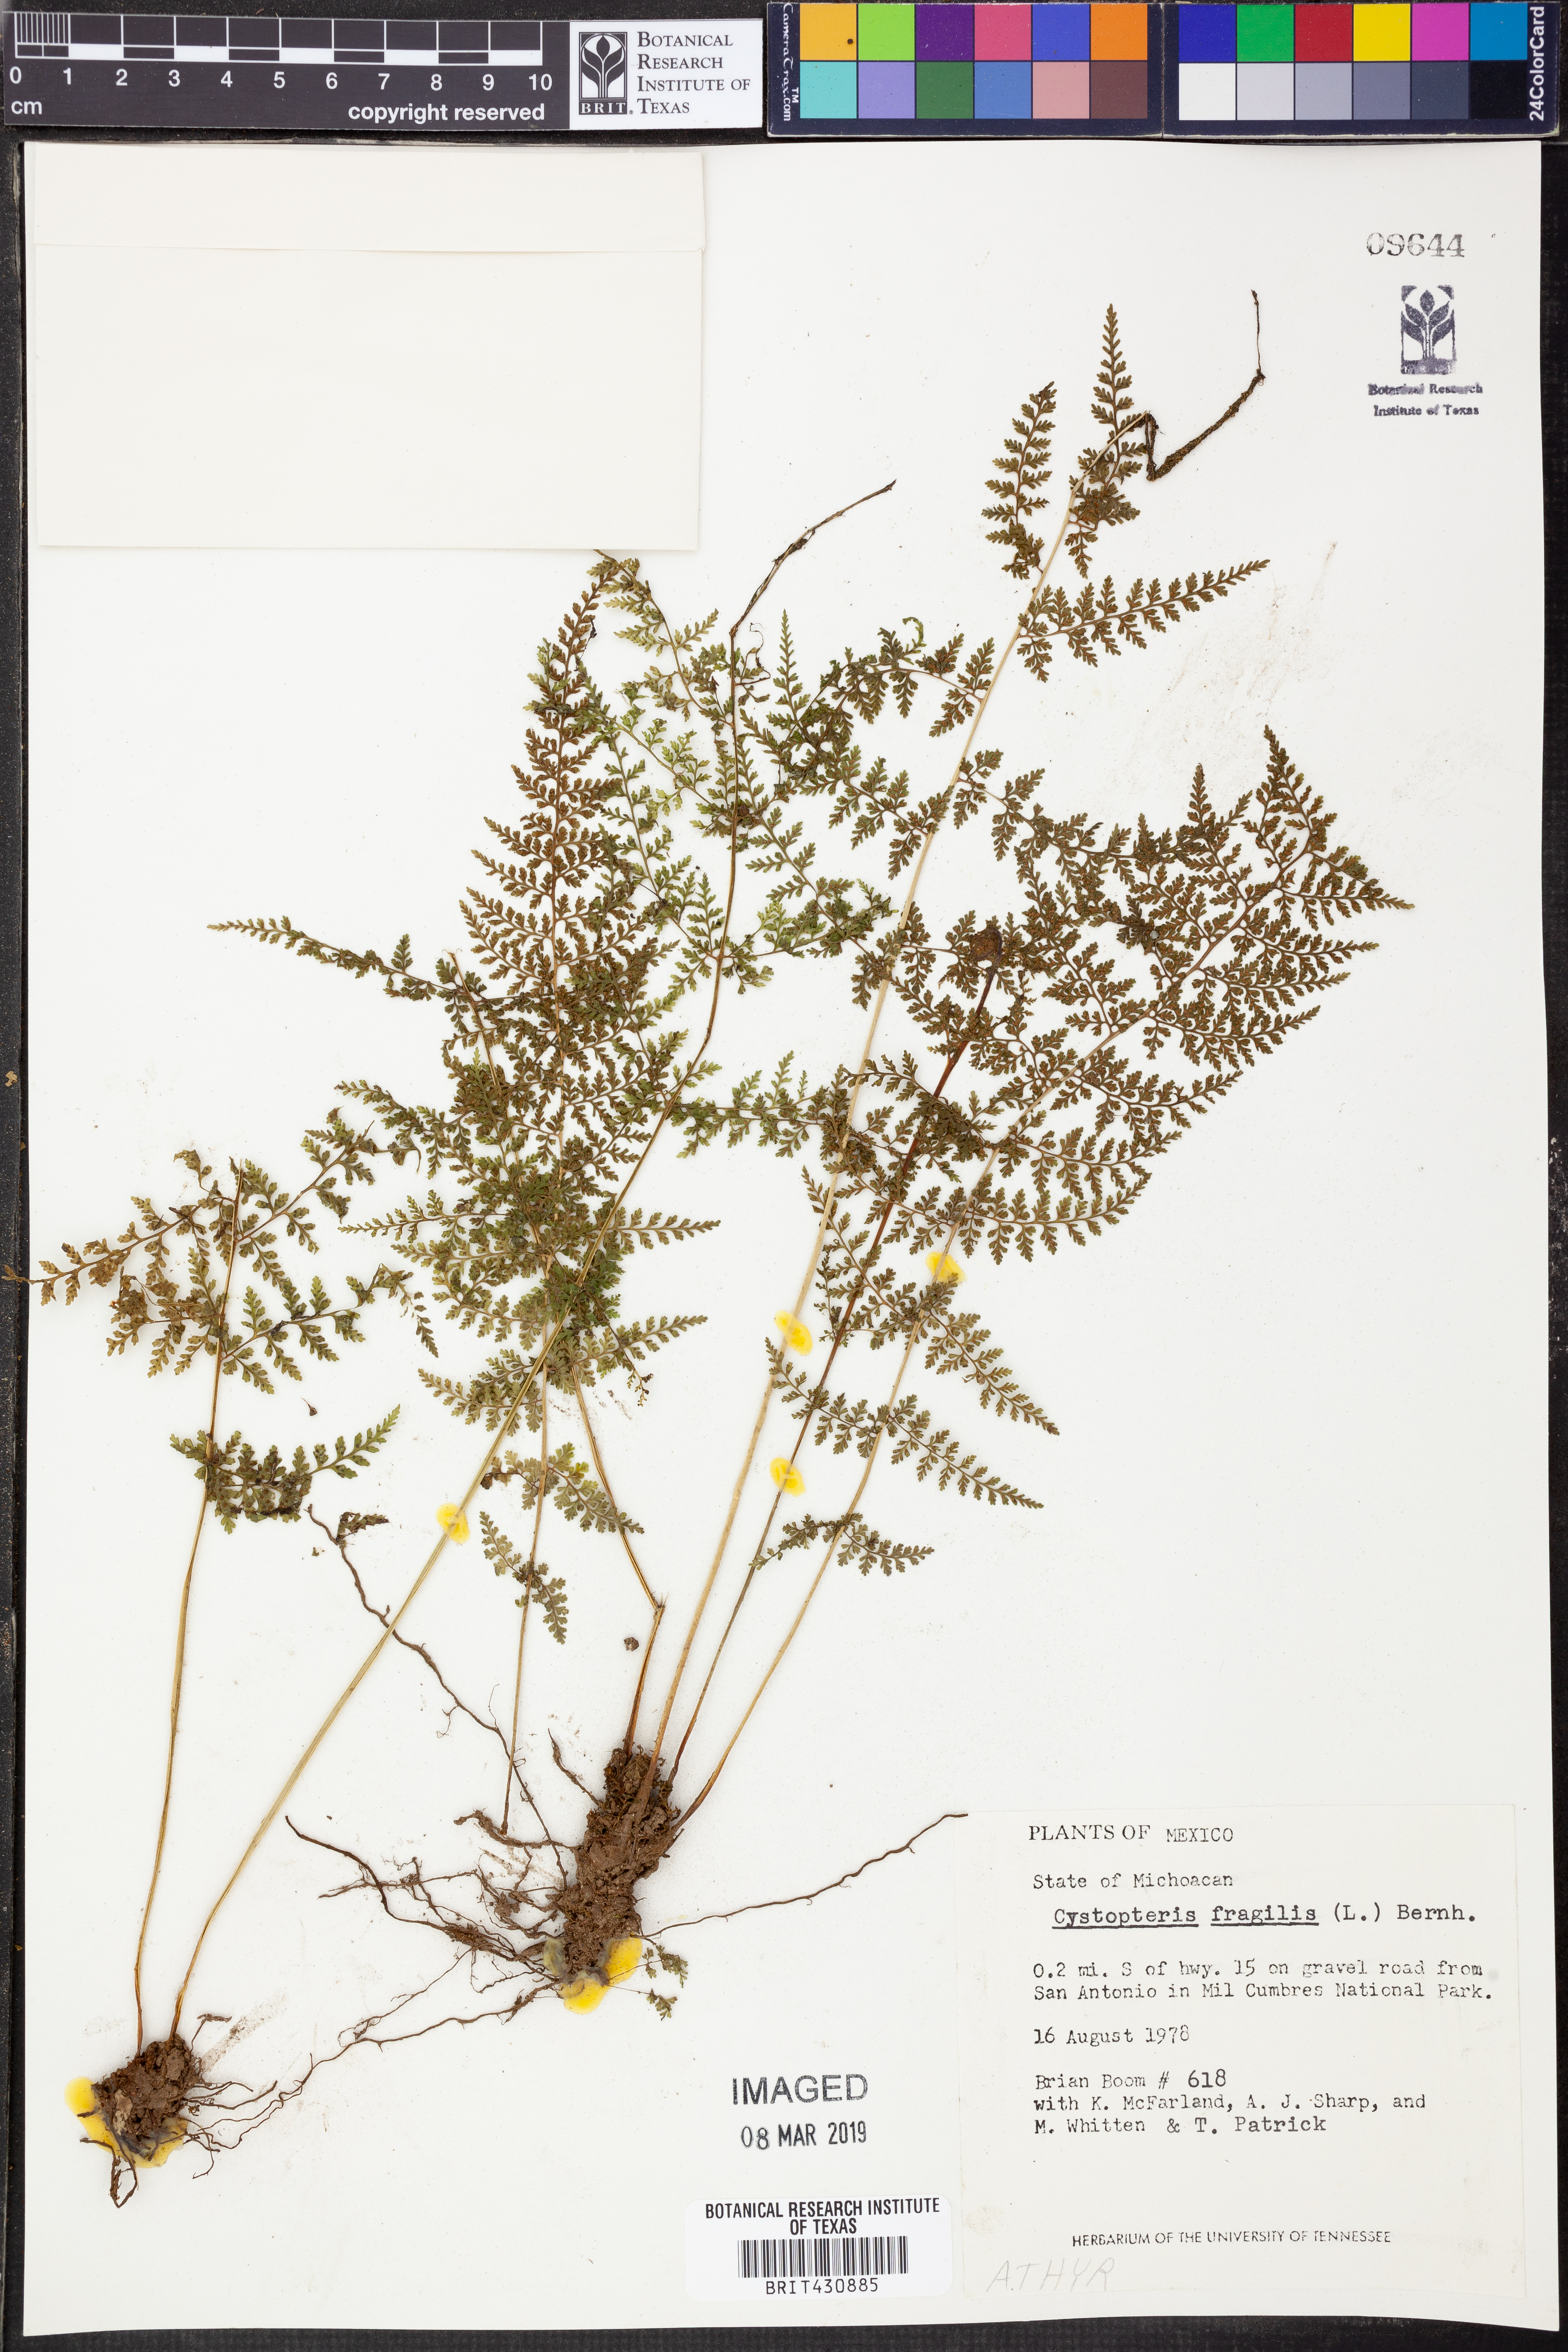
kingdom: Plantae
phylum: Tracheophyta
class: Polypodiopsida
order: Polypodiales
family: Cystopteridaceae
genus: Cystopteris
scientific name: Cystopteris fragilis
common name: Brittle bladder fern
